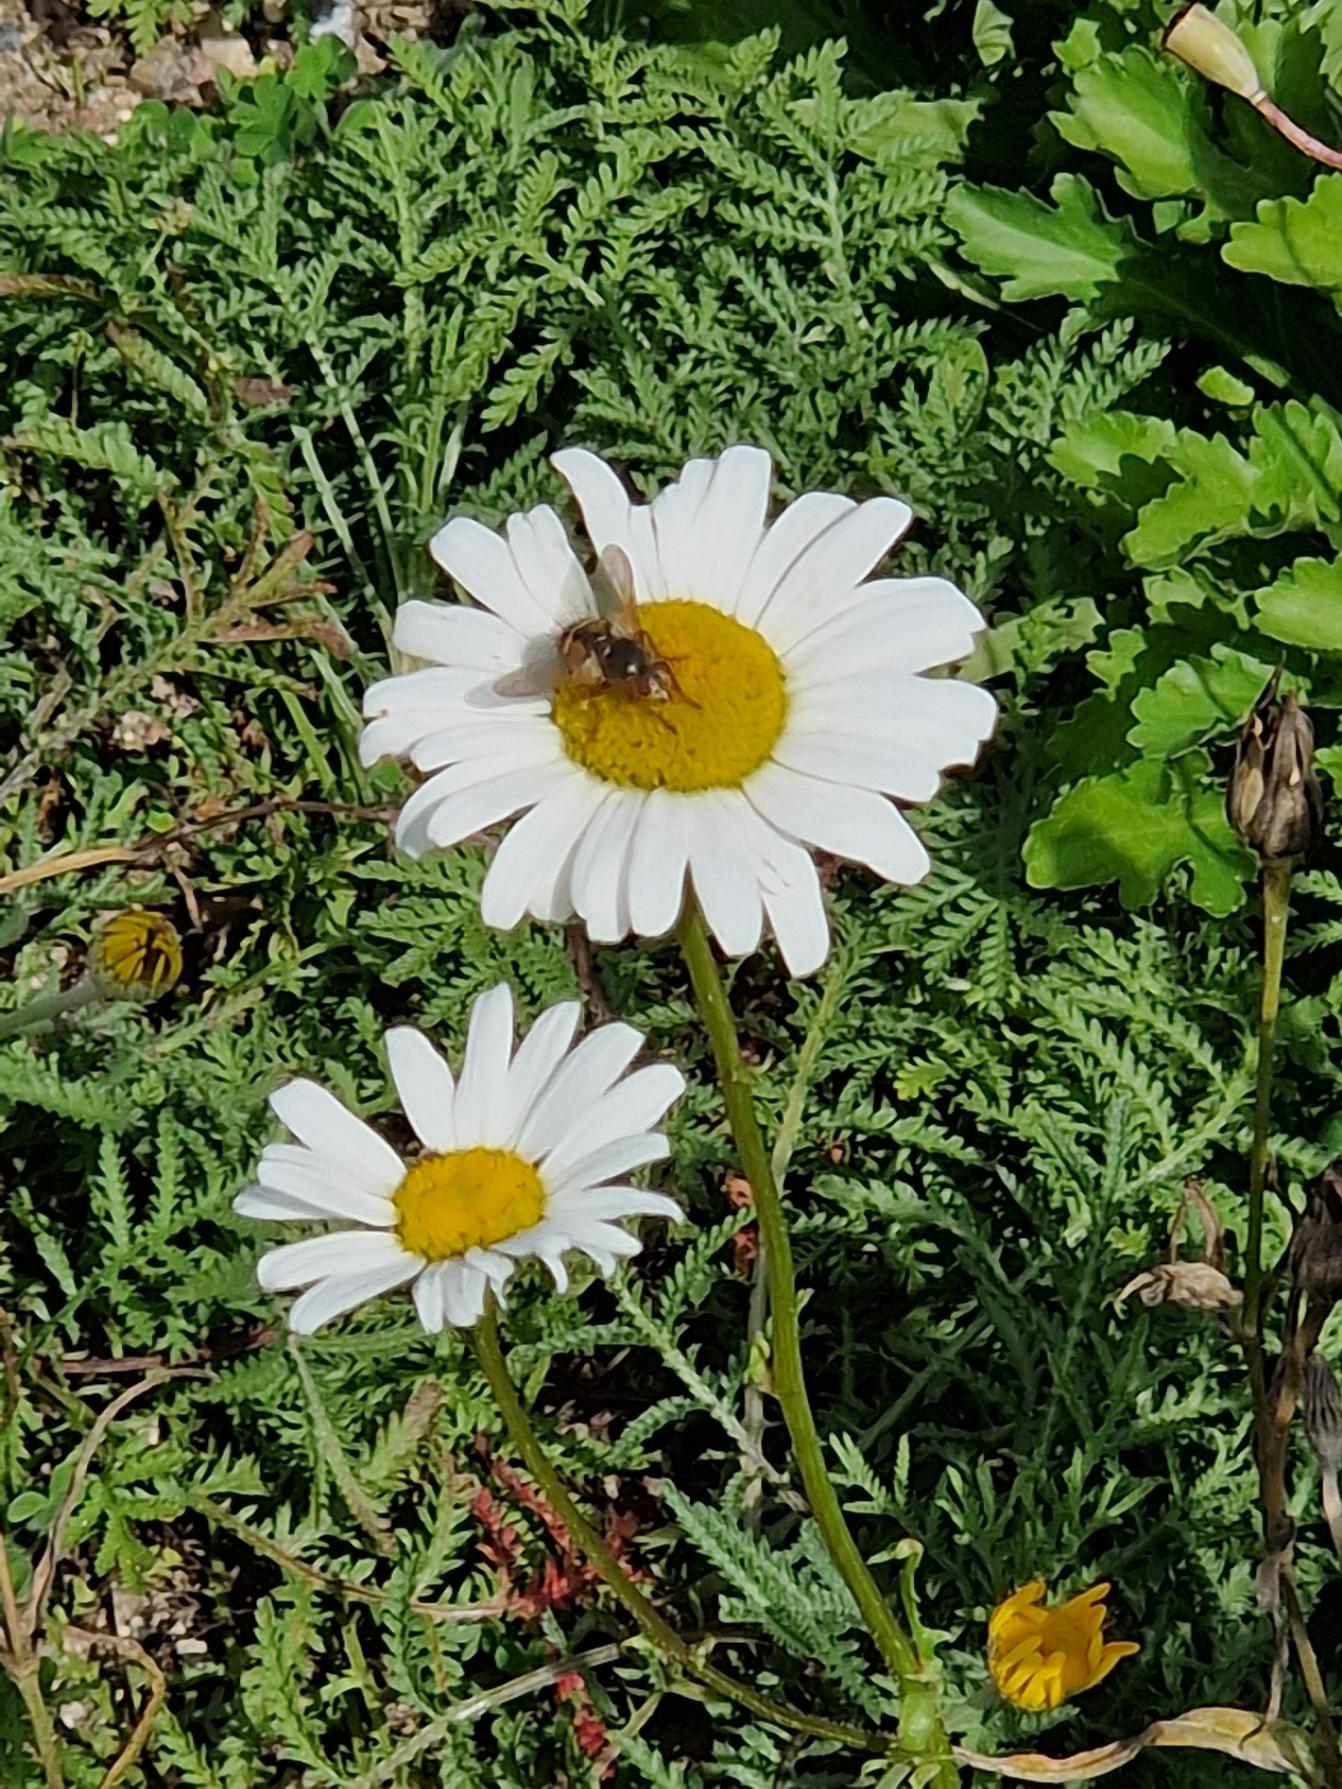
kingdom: Animalia
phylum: Arthropoda
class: Insecta
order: Diptera
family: Tachinidae
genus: Tachina
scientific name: Tachina fera
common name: Mellemfluen oskar
